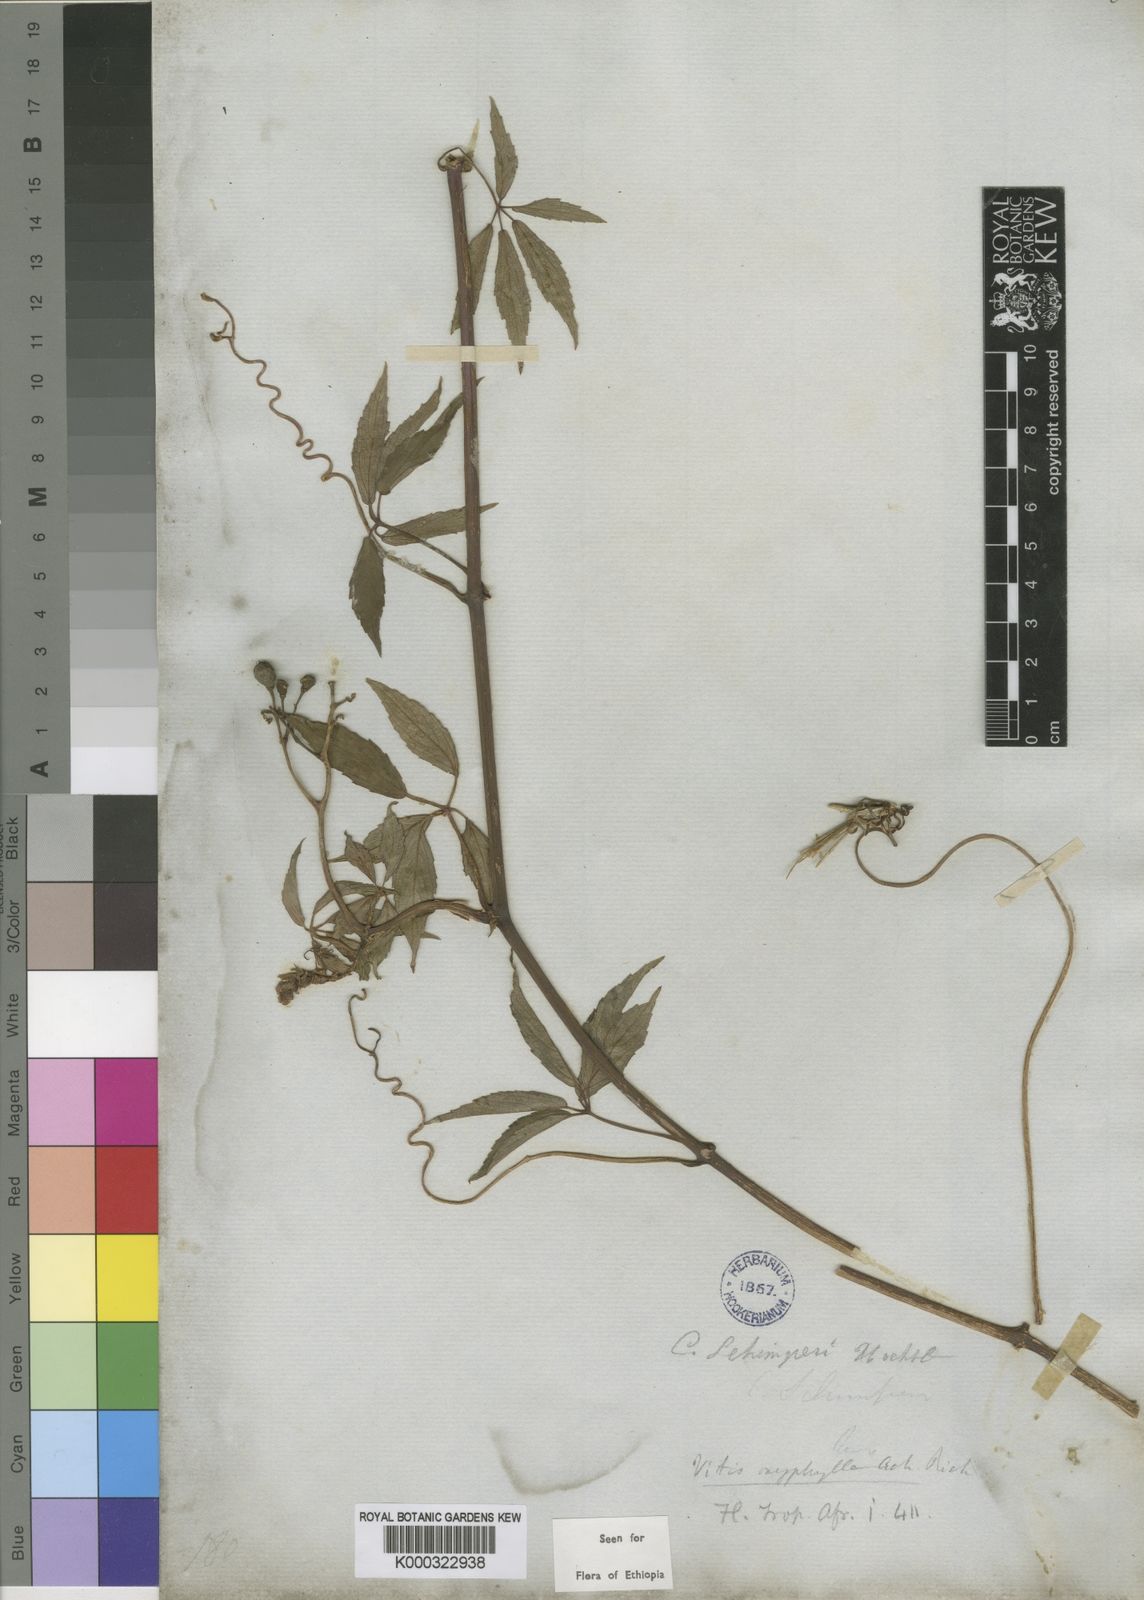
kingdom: Plantae
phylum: Tracheophyta
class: Magnoliopsida
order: Vitales
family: Vitaceae
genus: Cyphostemma
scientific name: Cyphostemma oxyphyllum
